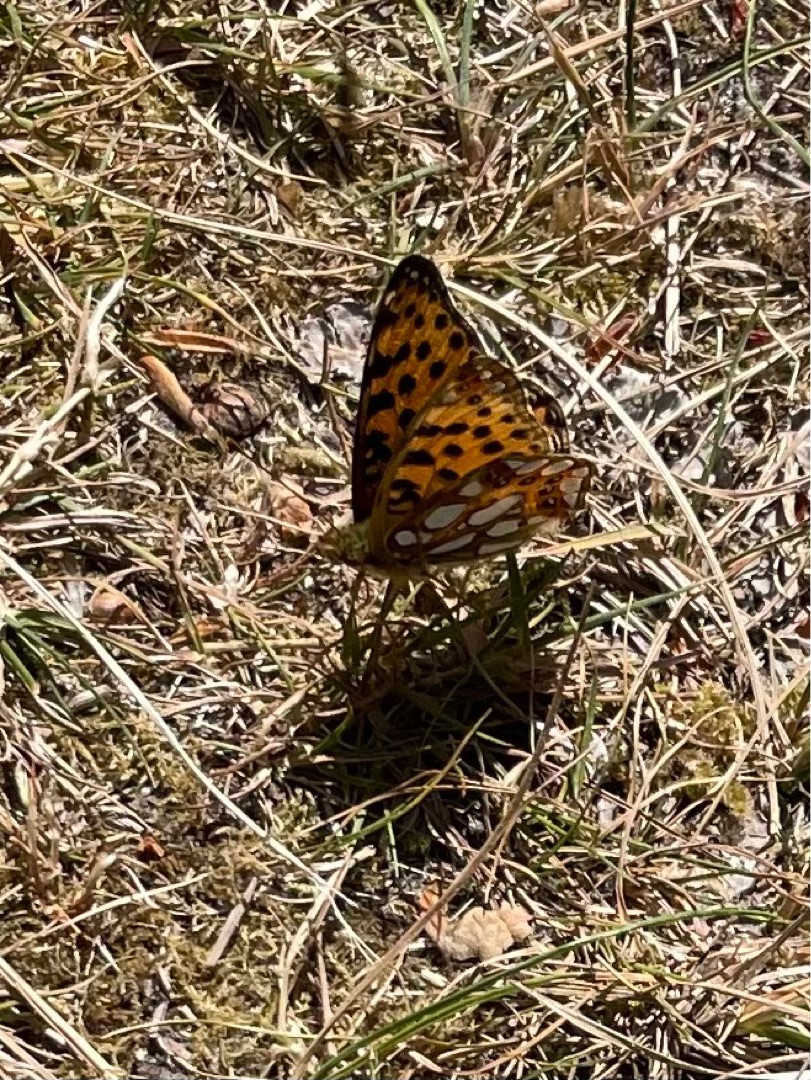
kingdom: Animalia
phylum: Arthropoda
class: Insecta
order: Lepidoptera
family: Nymphalidae
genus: Issoria
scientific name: Issoria lathonia
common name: Storplettet perlemorsommerfugl
